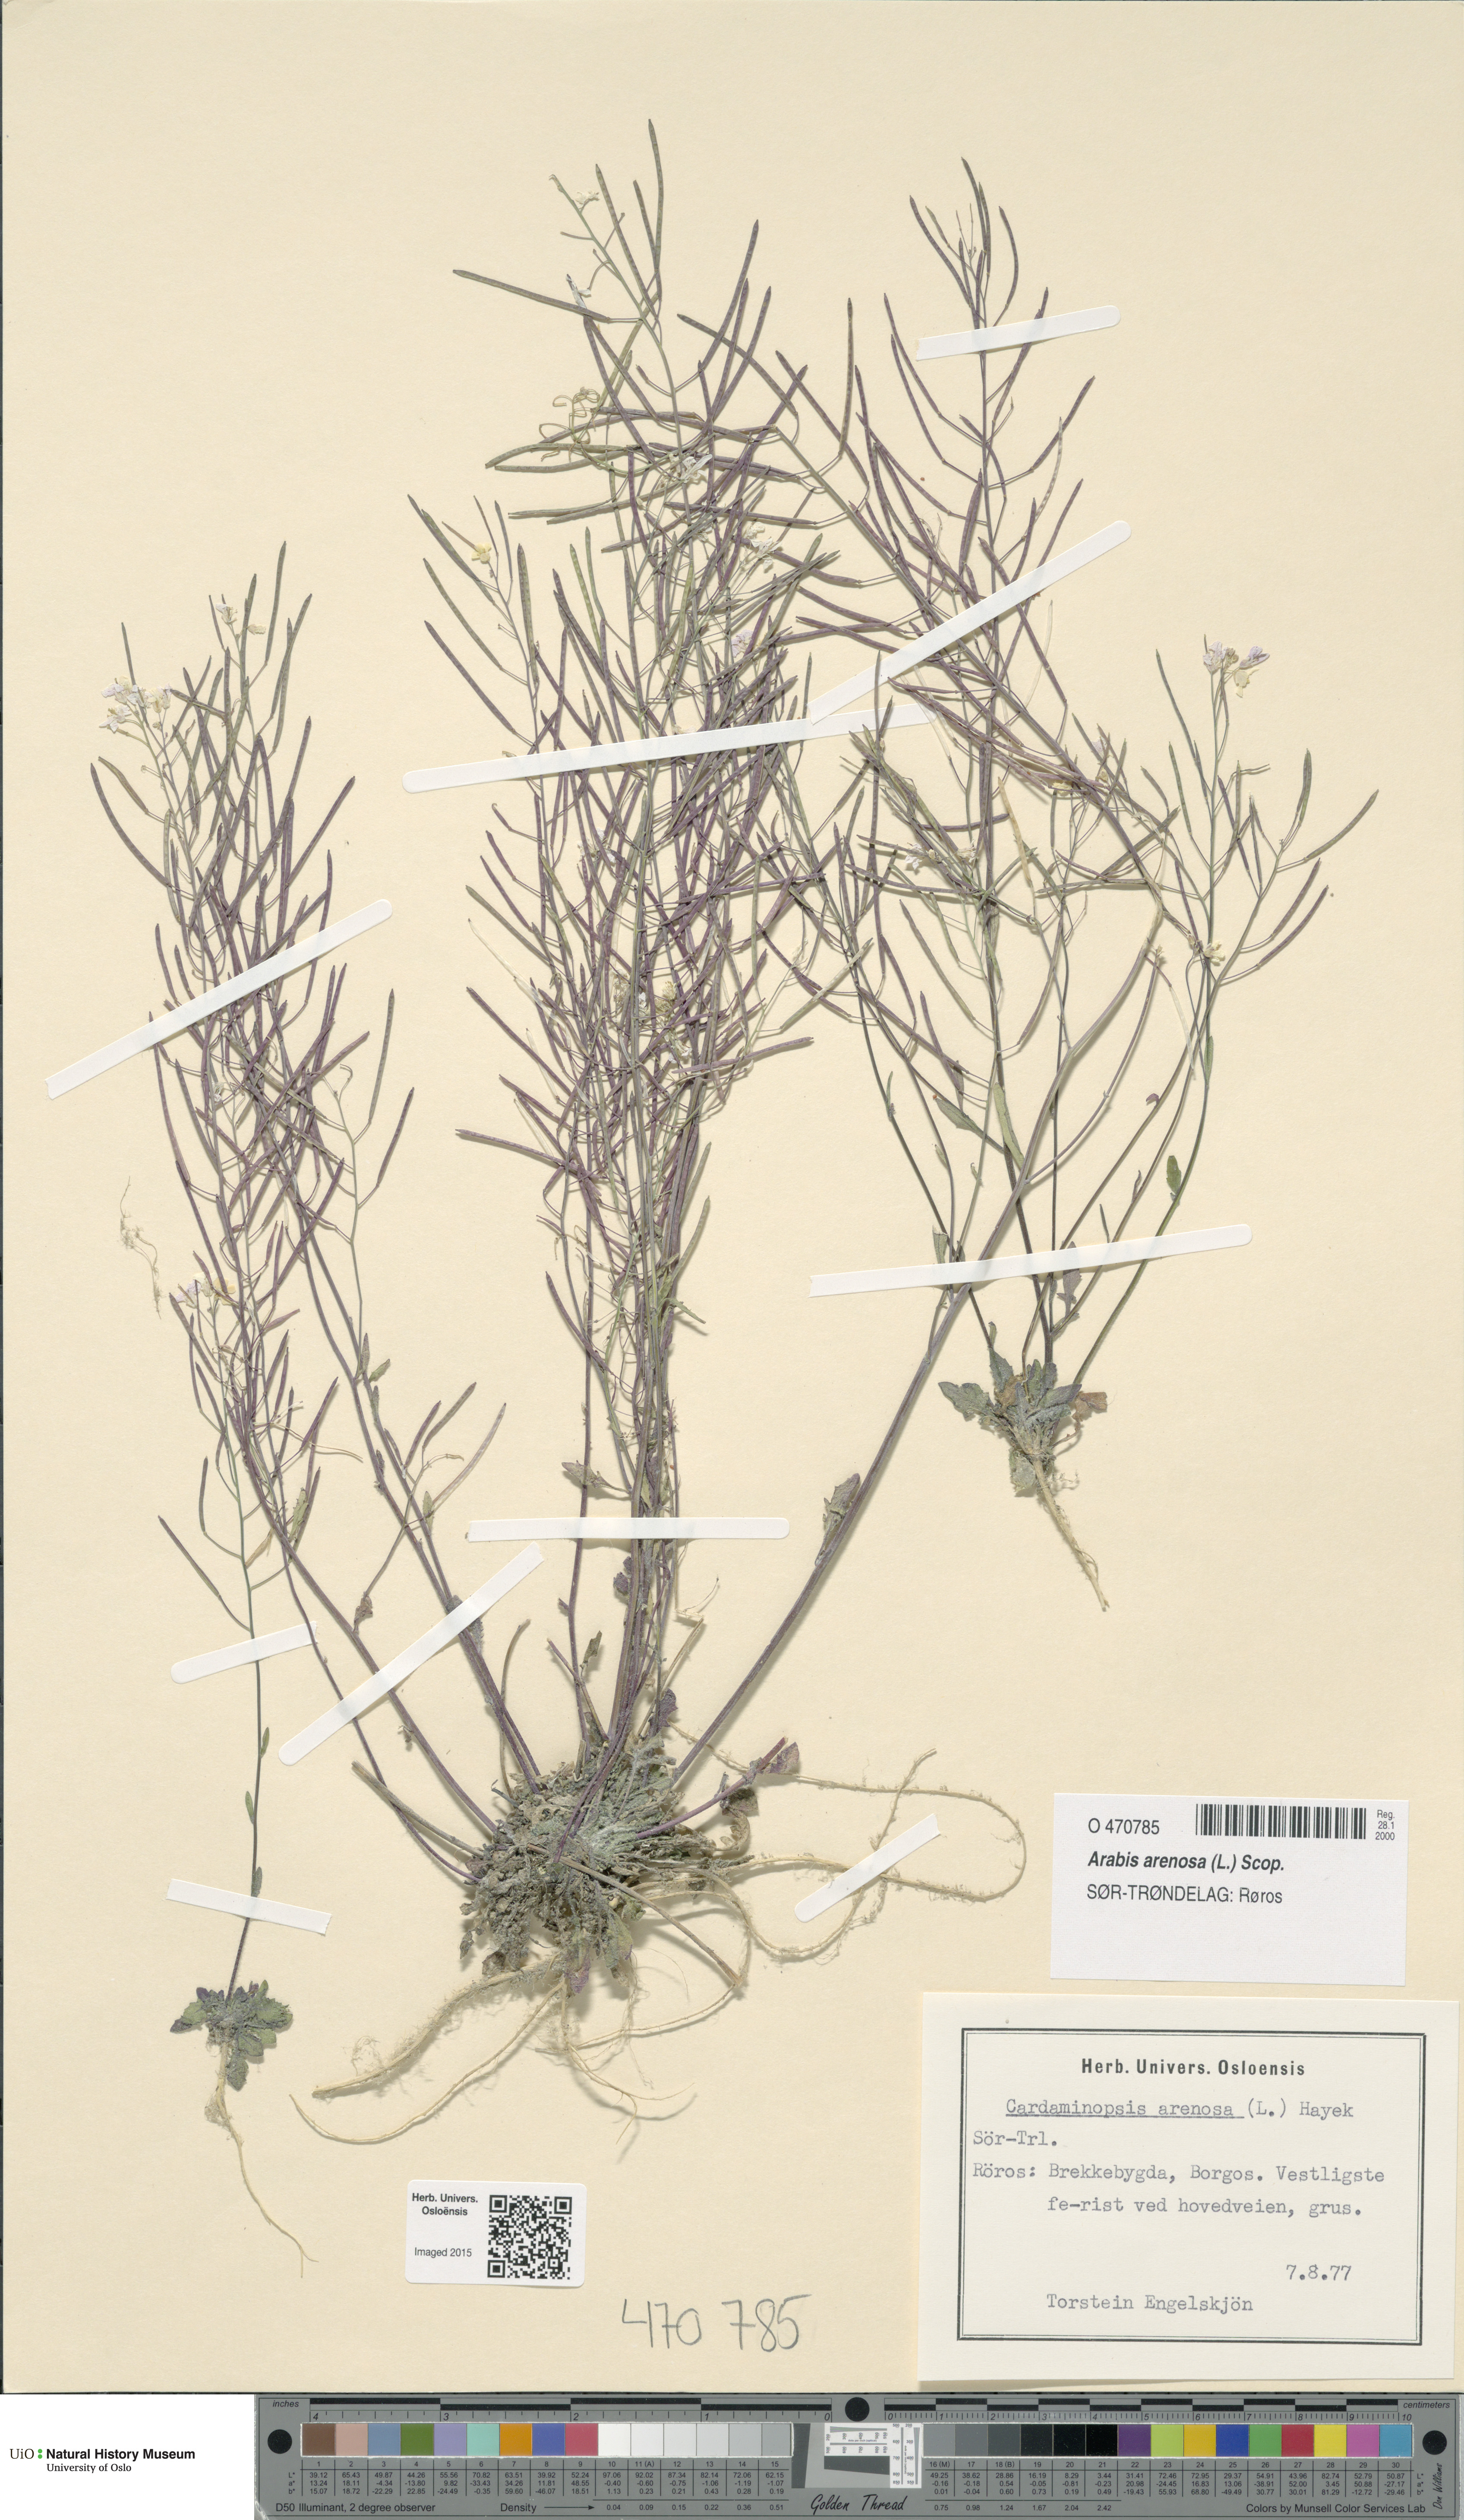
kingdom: Plantae
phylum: Tracheophyta
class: Magnoliopsida
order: Brassicales
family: Brassicaceae
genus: Arabidopsis
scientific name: Arabidopsis arenosa
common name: Sand rock-cress
